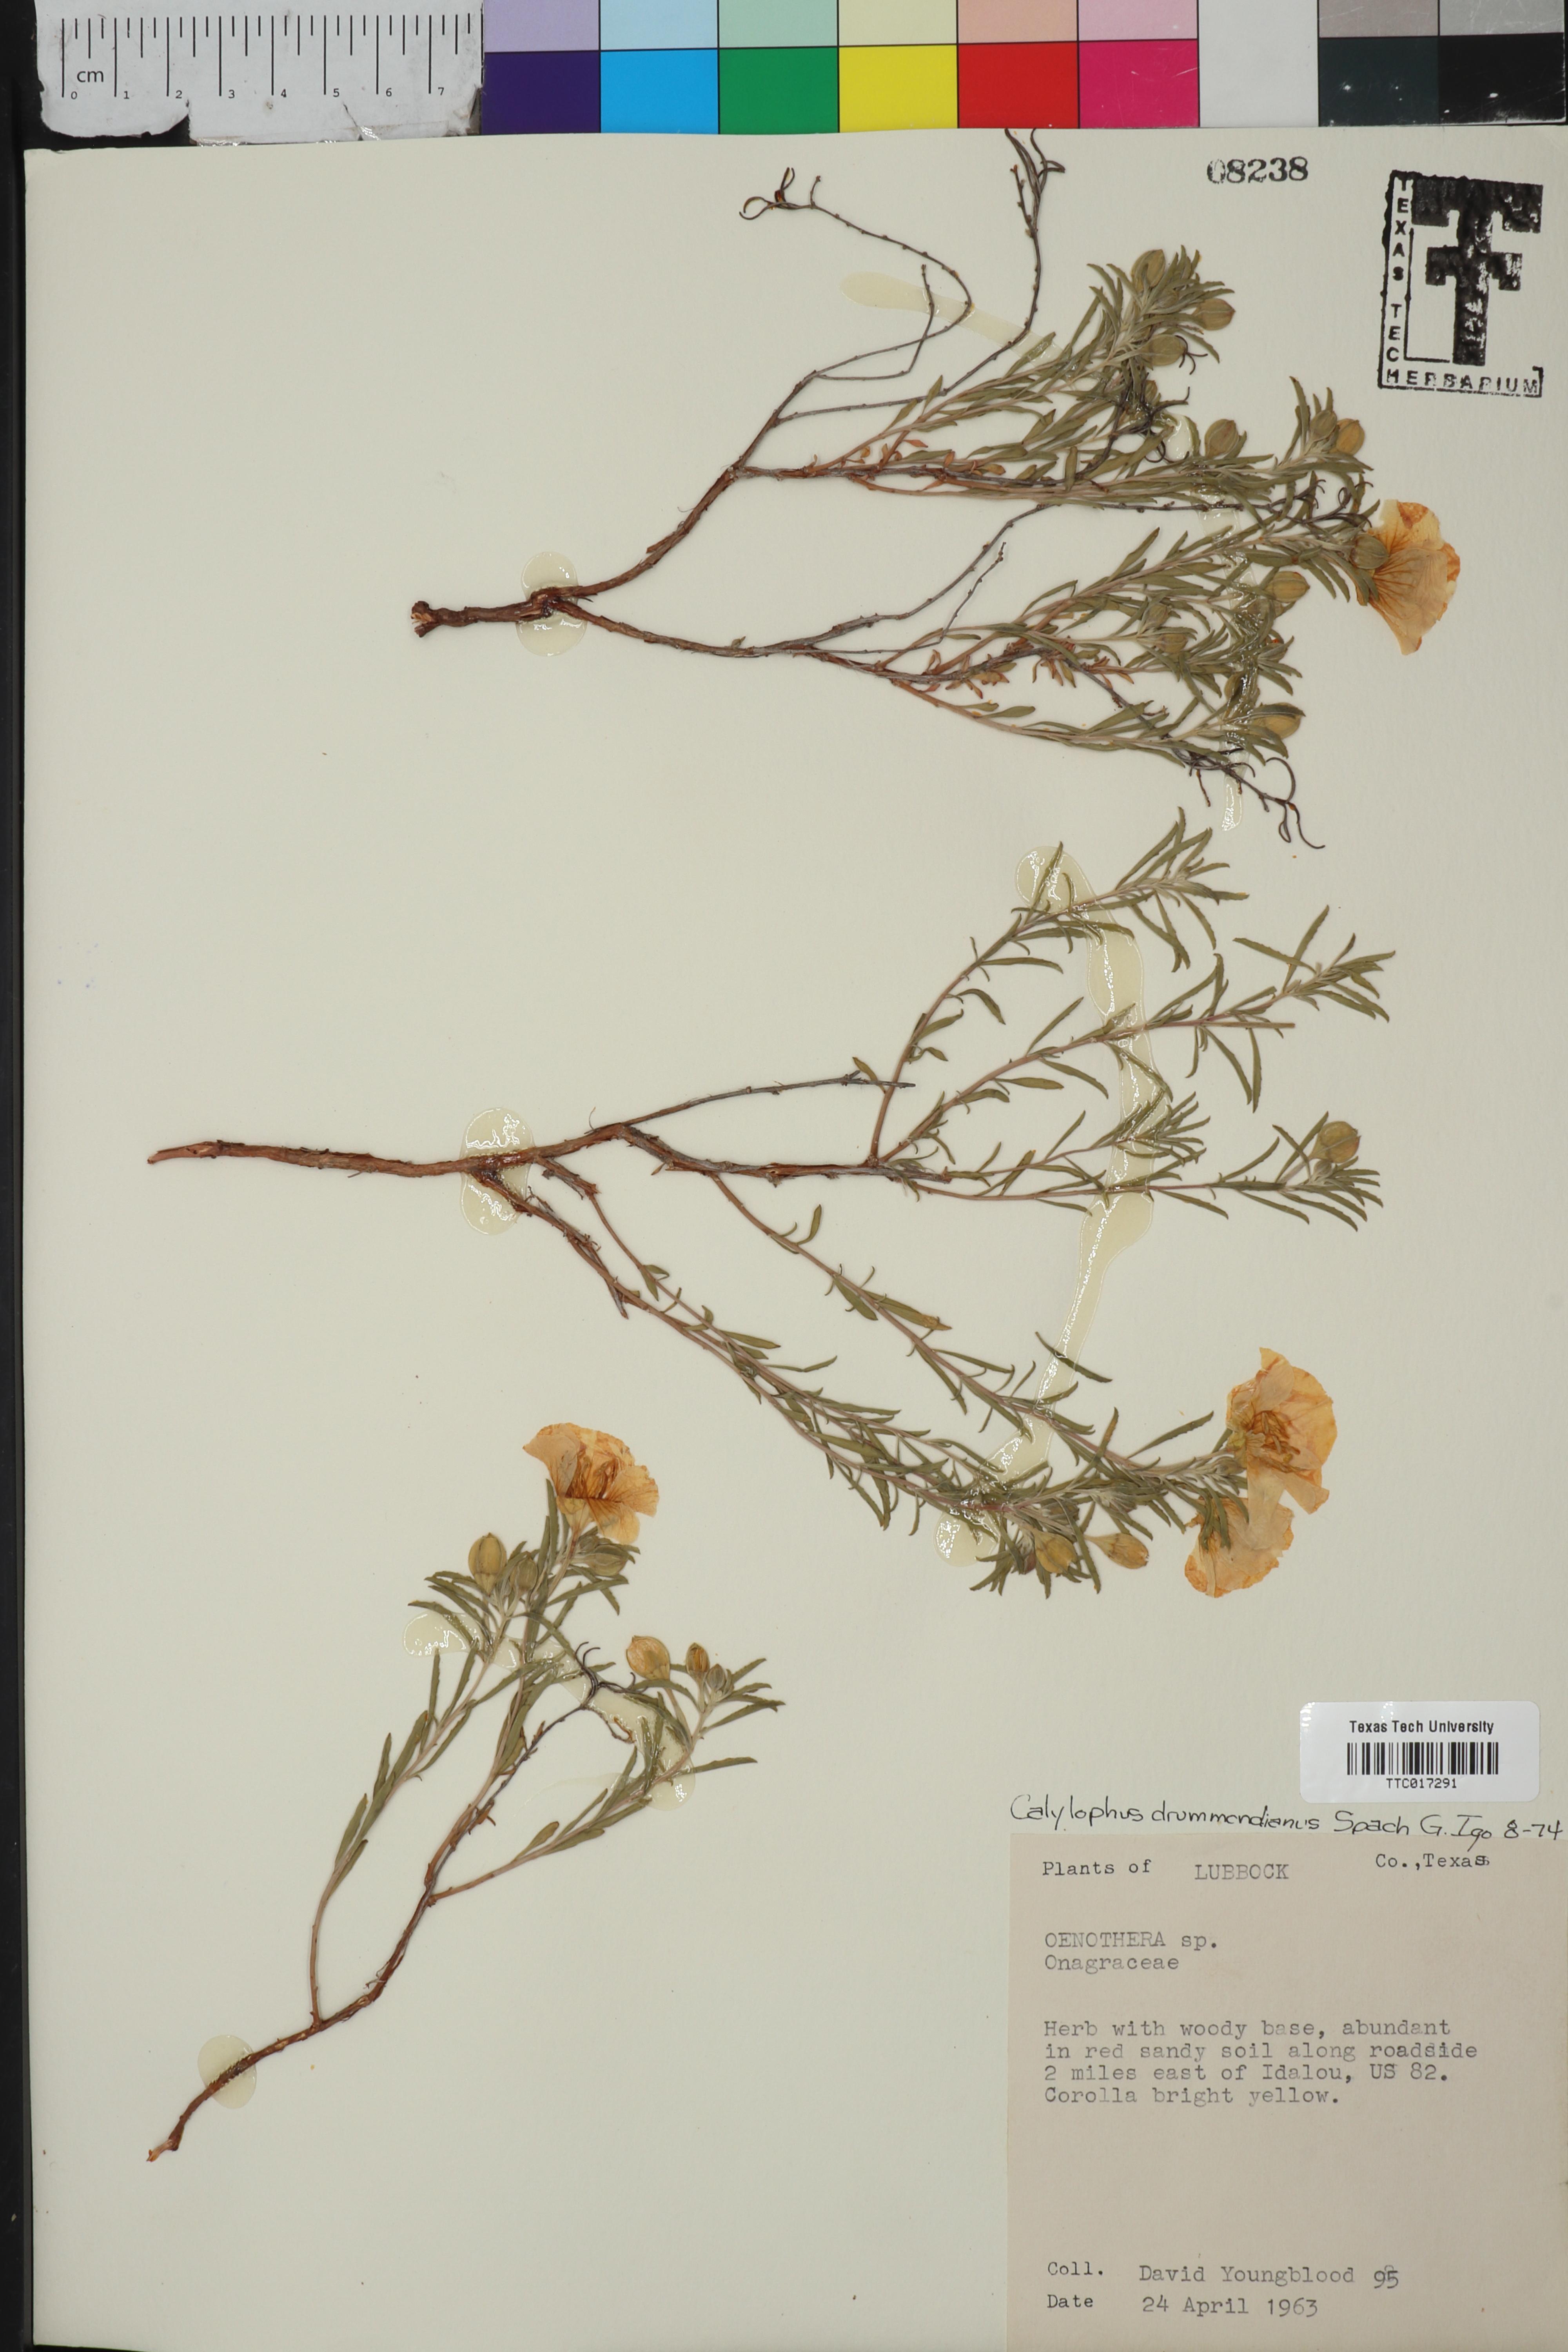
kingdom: Plantae
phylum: Tracheophyta
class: Magnoliopsida
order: Myrtales
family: Onagraceae
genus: Oenothera
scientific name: Oenothera serrulata
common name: Half-shrub calylophus
